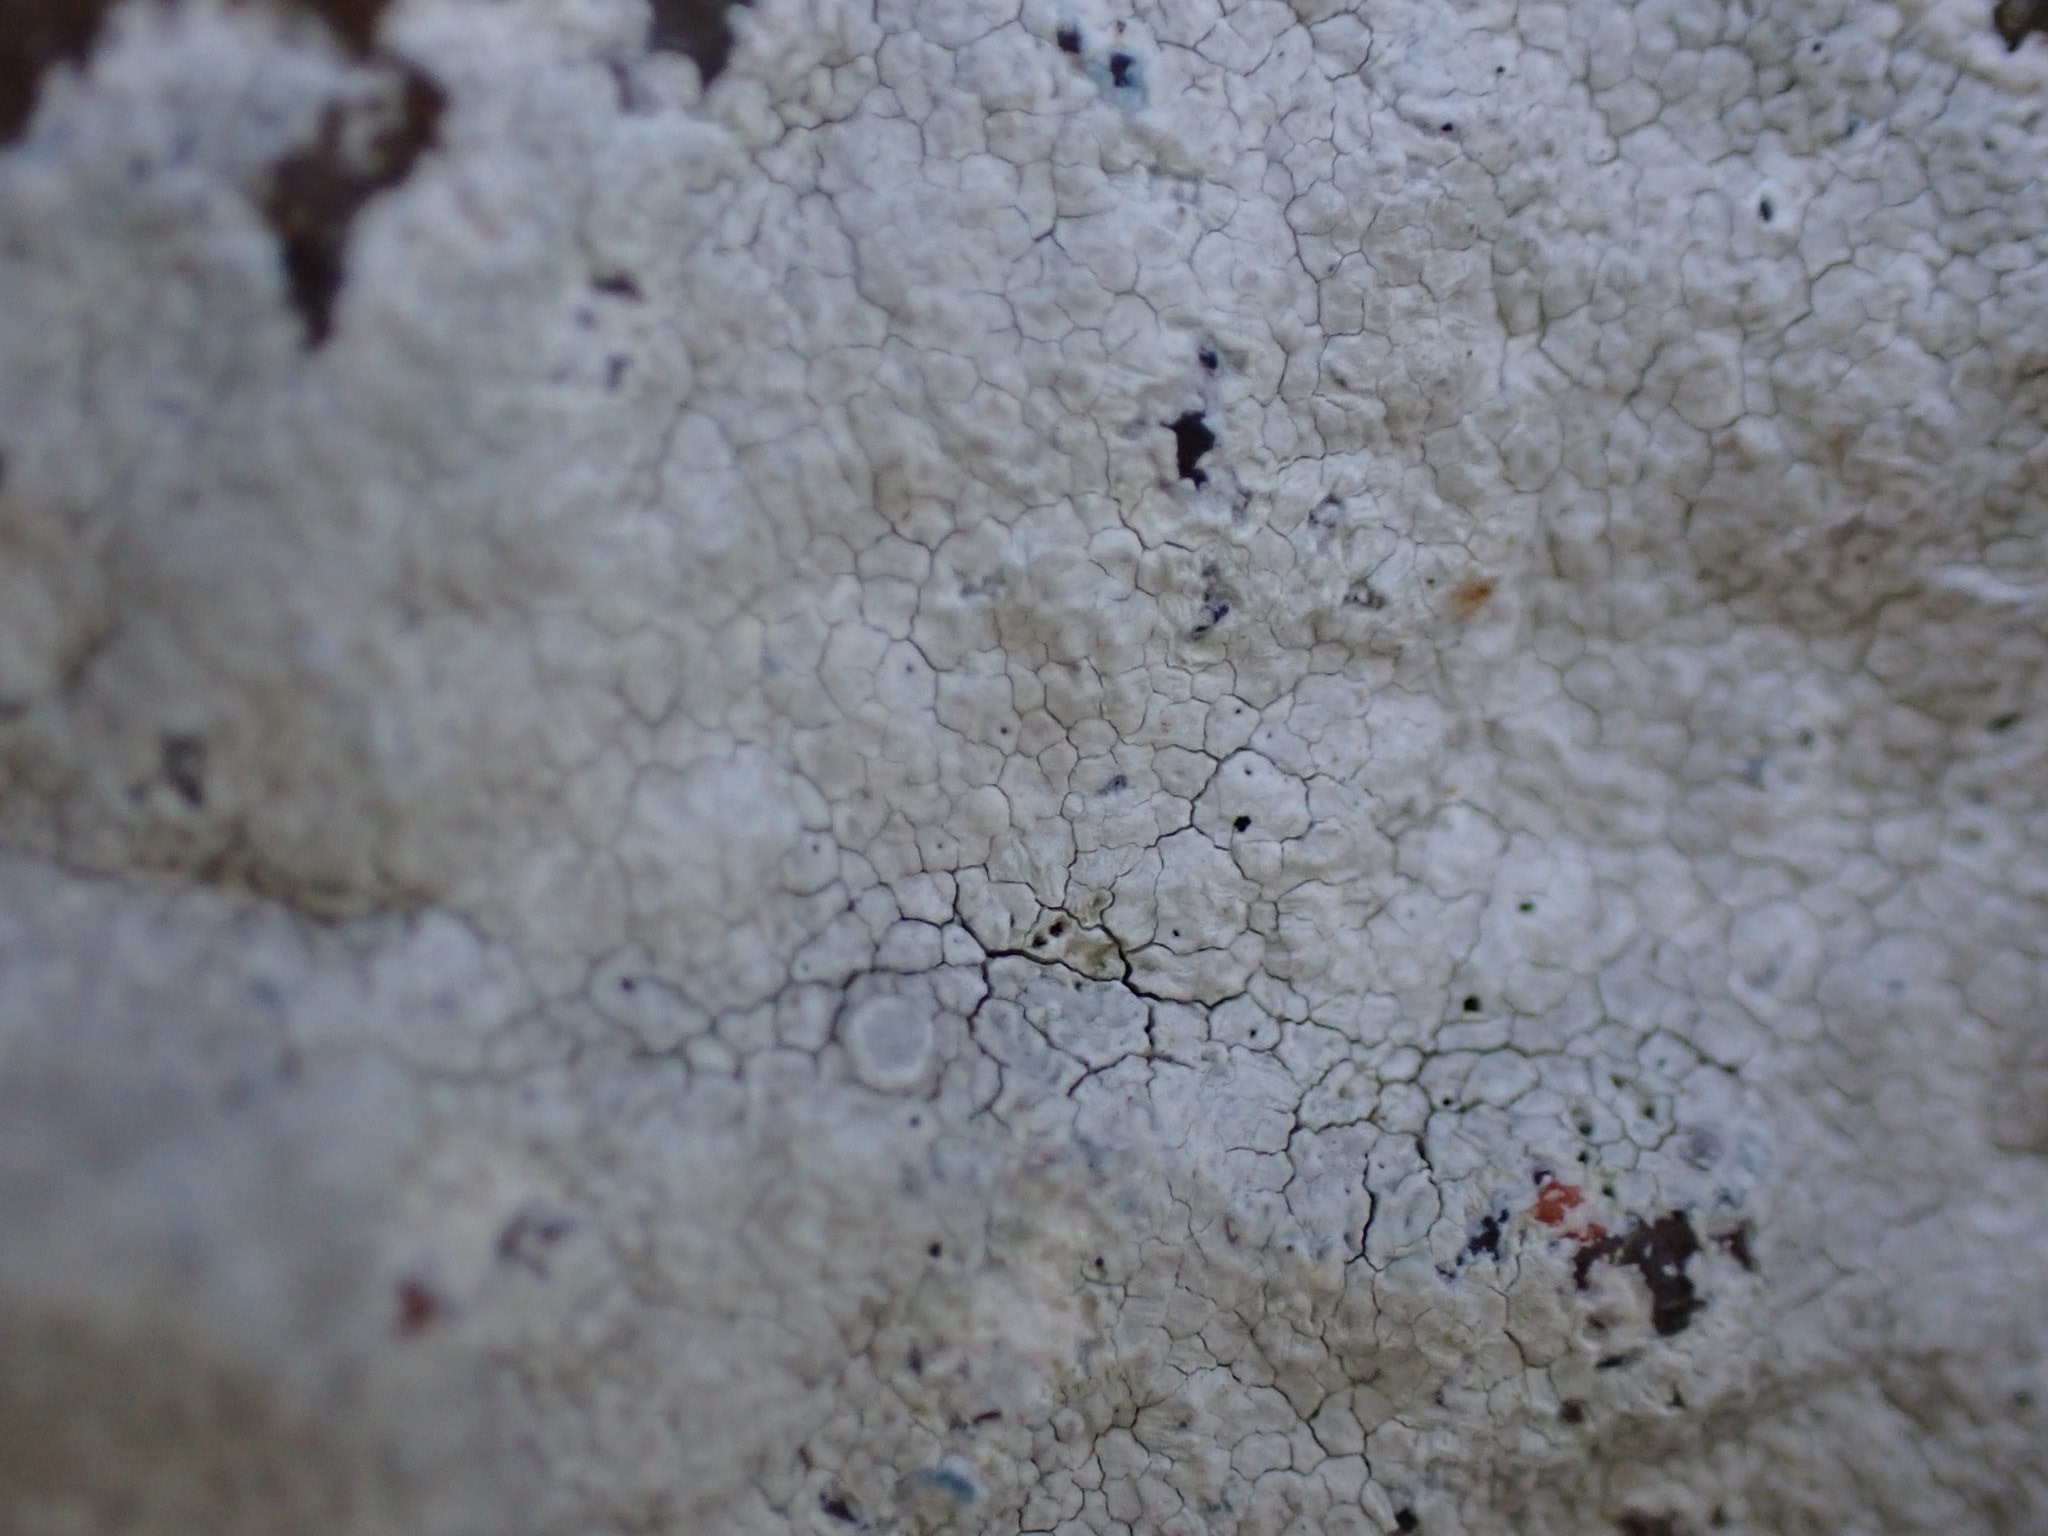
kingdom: Fungi
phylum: Ascomycota
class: Lecanoromycetes
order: Lecanorales
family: Lecanoraceae
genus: Glaucomaria
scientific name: Glaucomaria rupicola
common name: stengærde-kantskivelav
